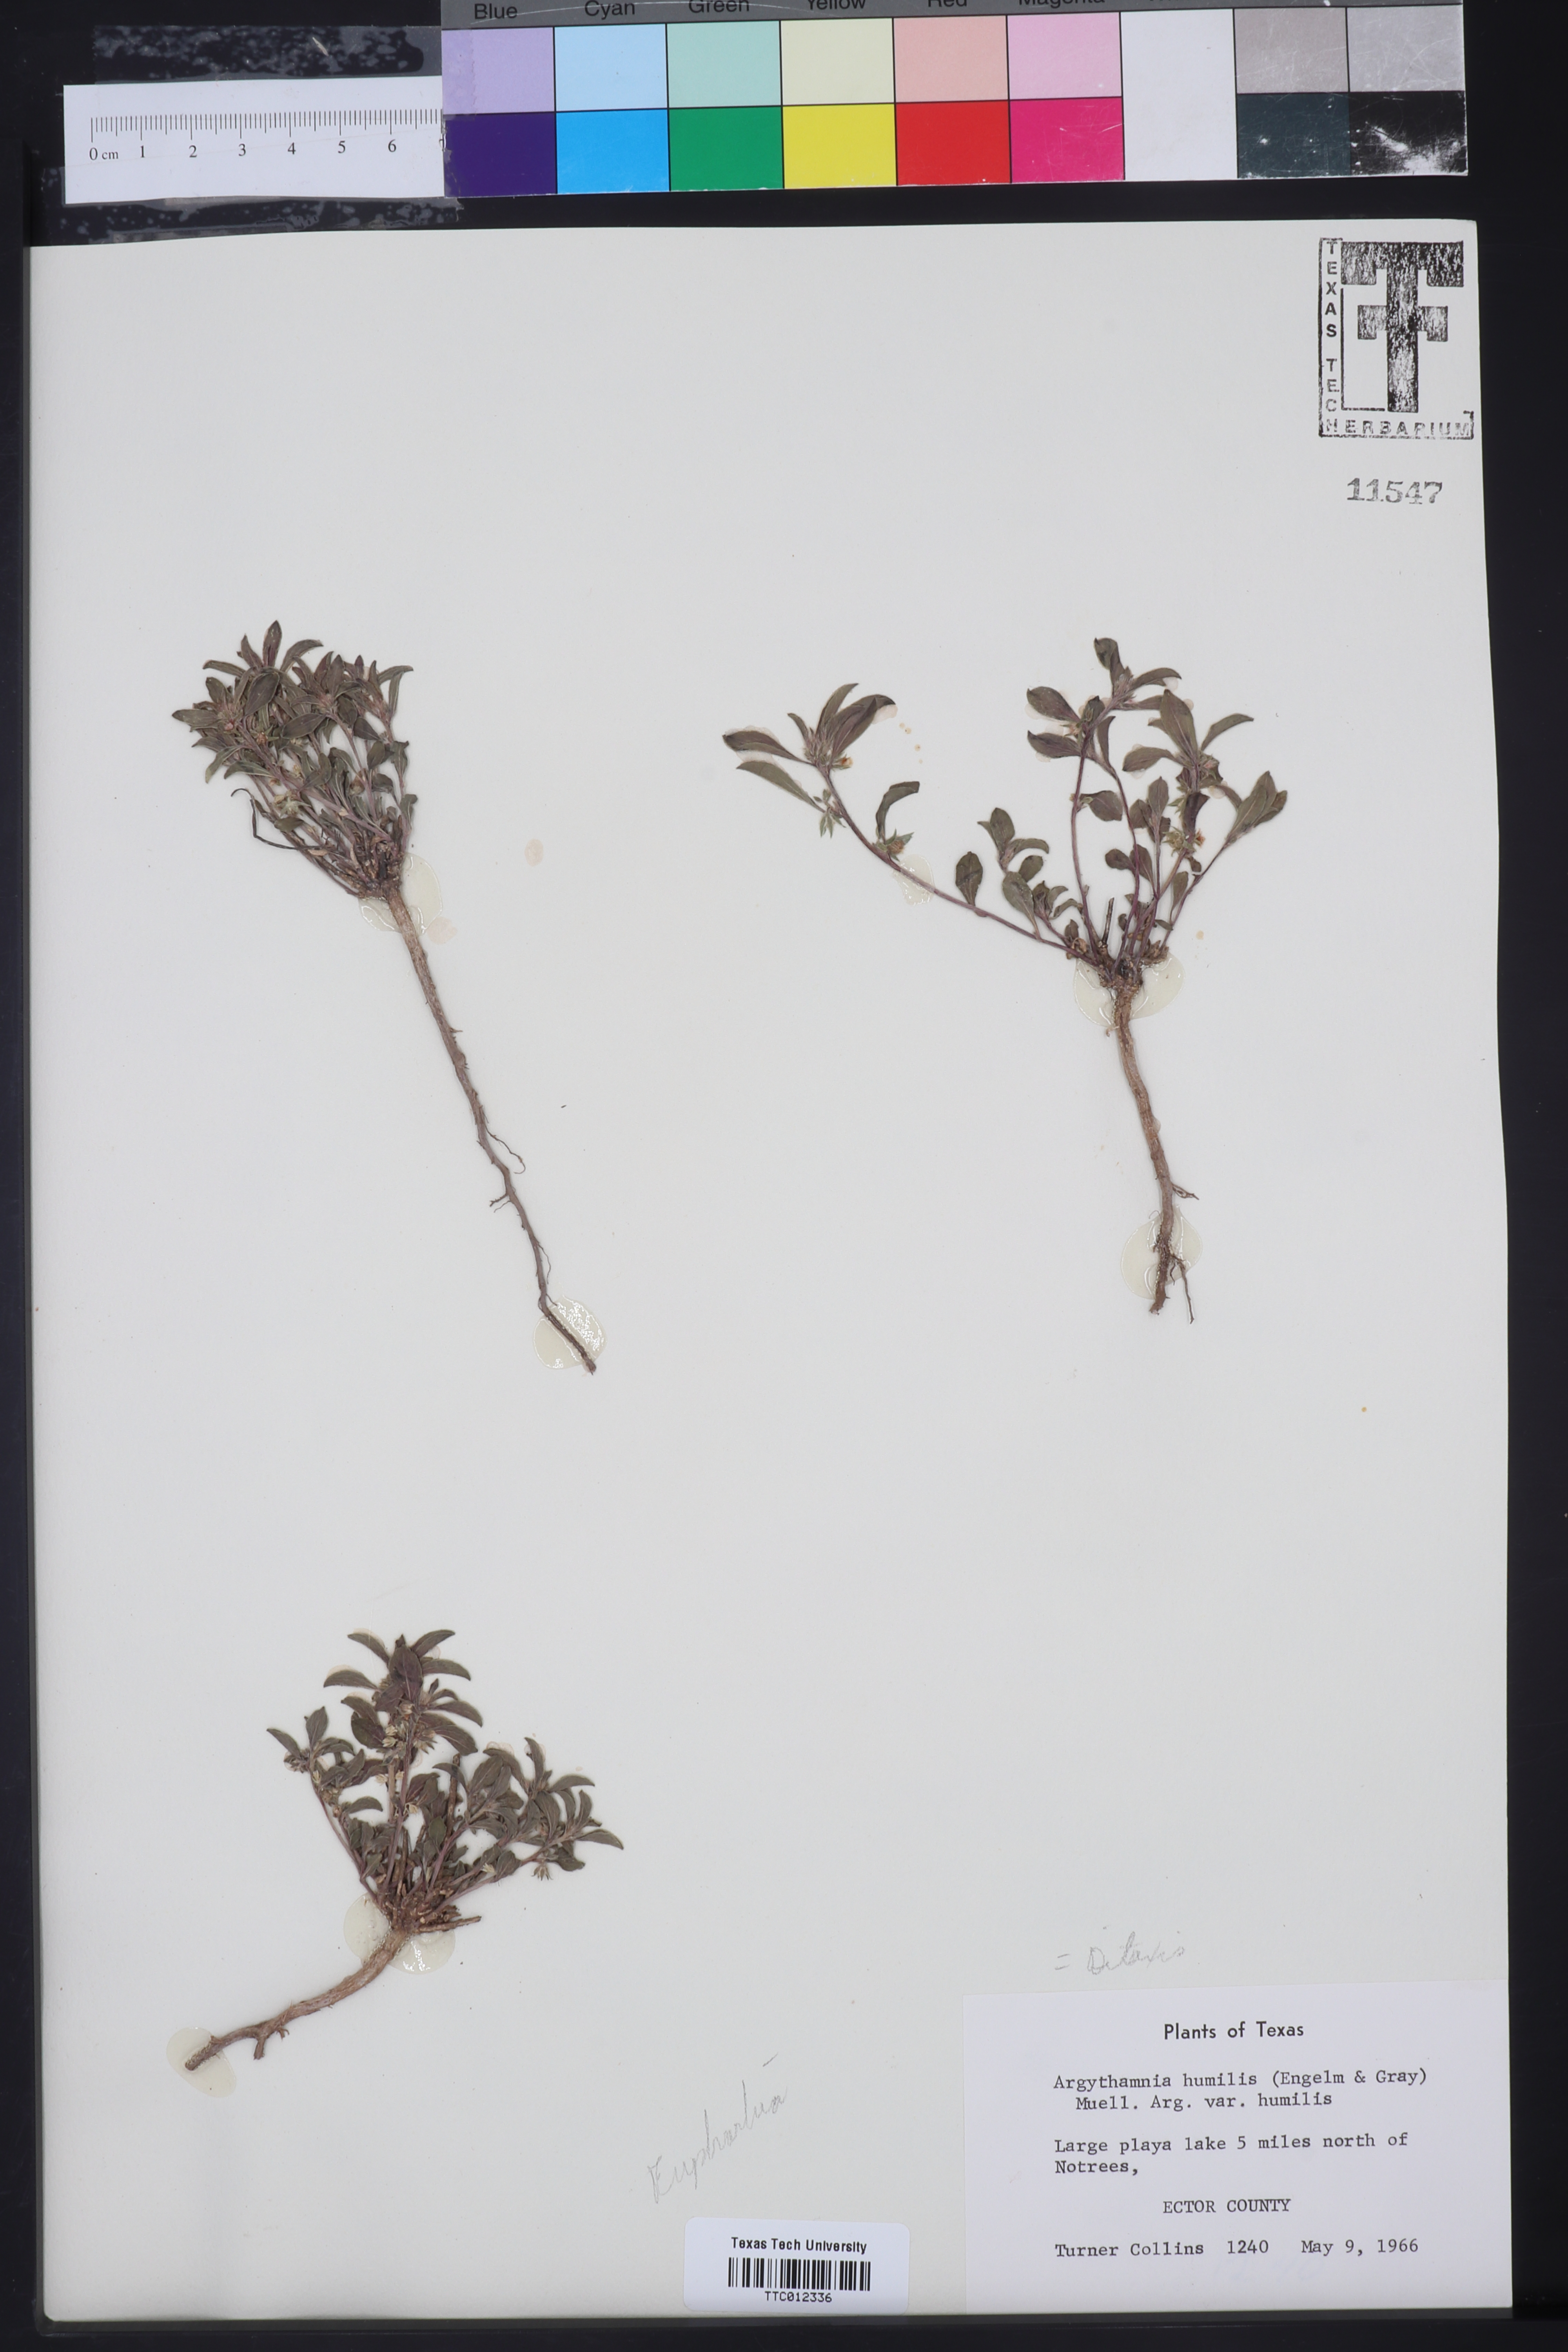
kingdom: Plantae
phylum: Tracheophyta
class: Magnoliopsida
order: Malpighiales
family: Euphorbiaceae
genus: Ditaxis
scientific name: Ditaxis humilis
